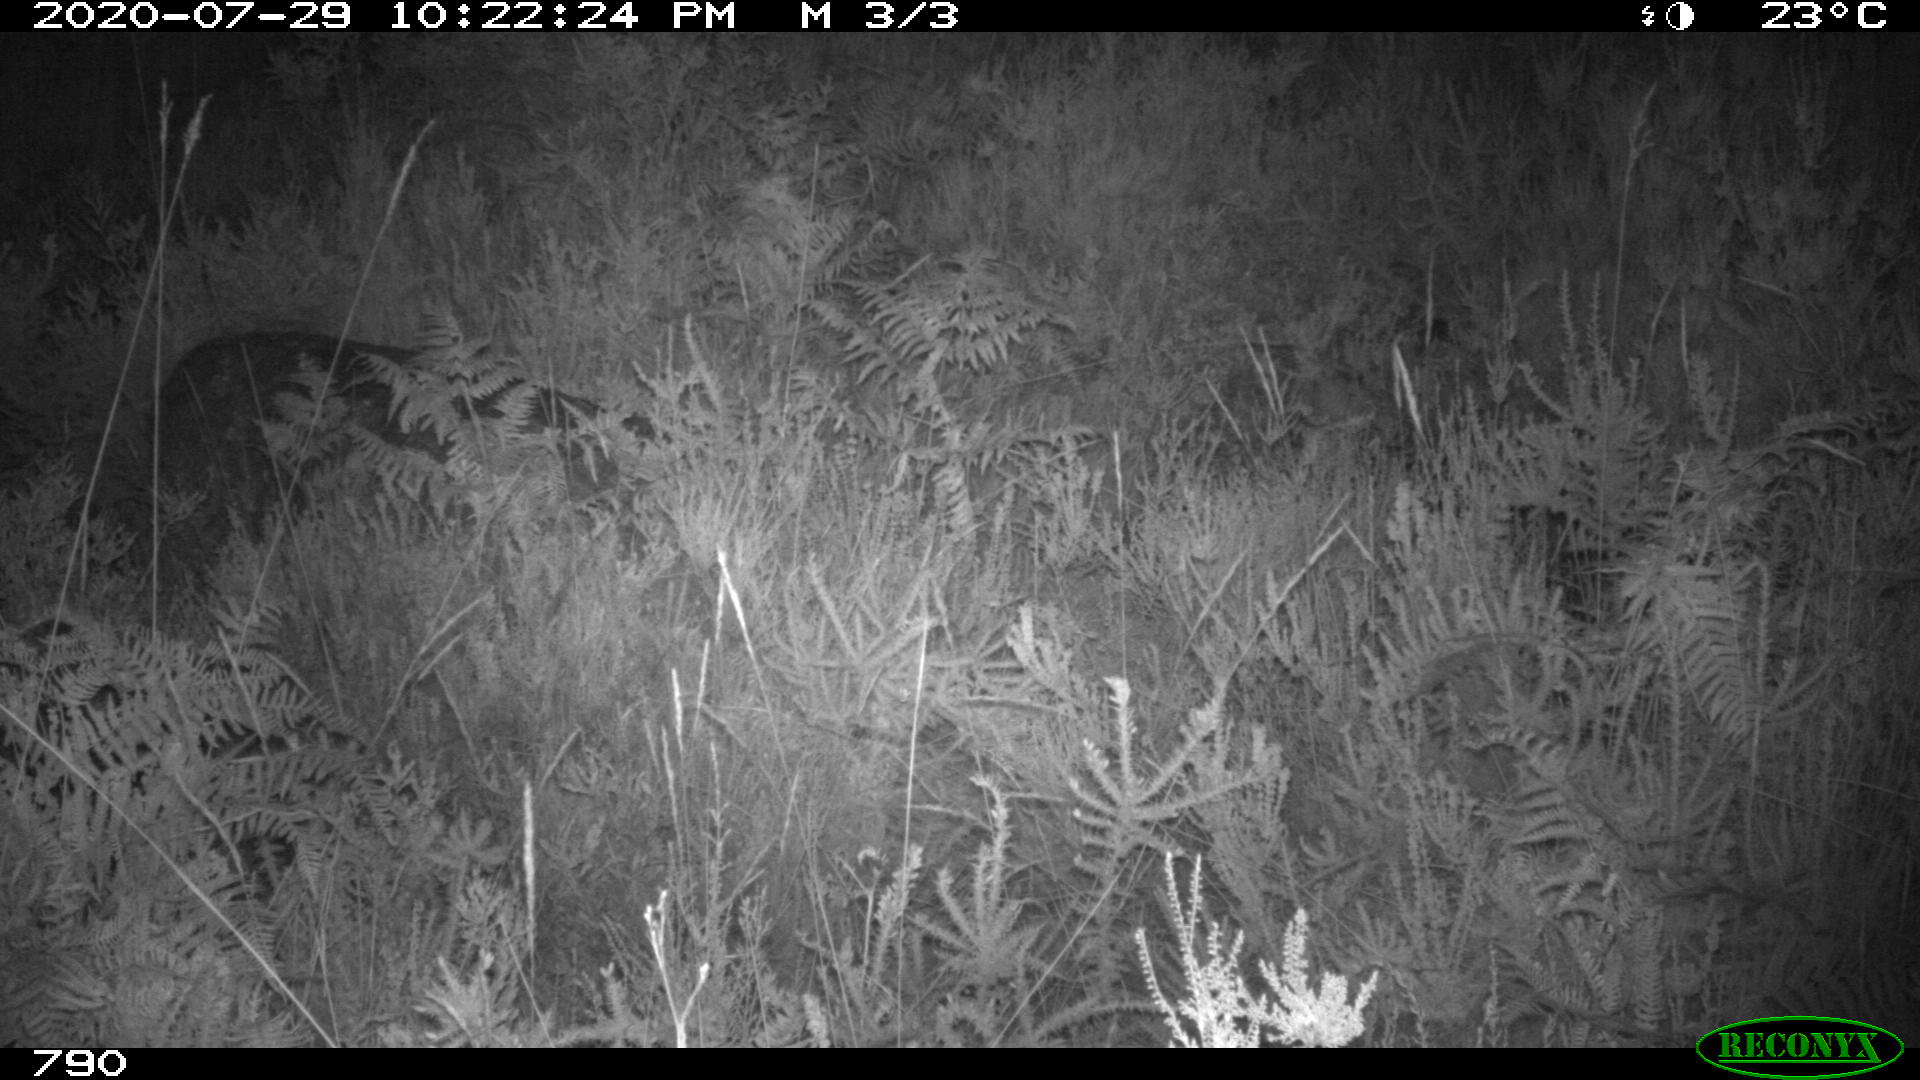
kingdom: Animalia
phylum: Chordata
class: Mammalia
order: Artiodactyla
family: Cervidae
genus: Capreolus
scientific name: Capreolus capreolus
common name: Western roe deer
